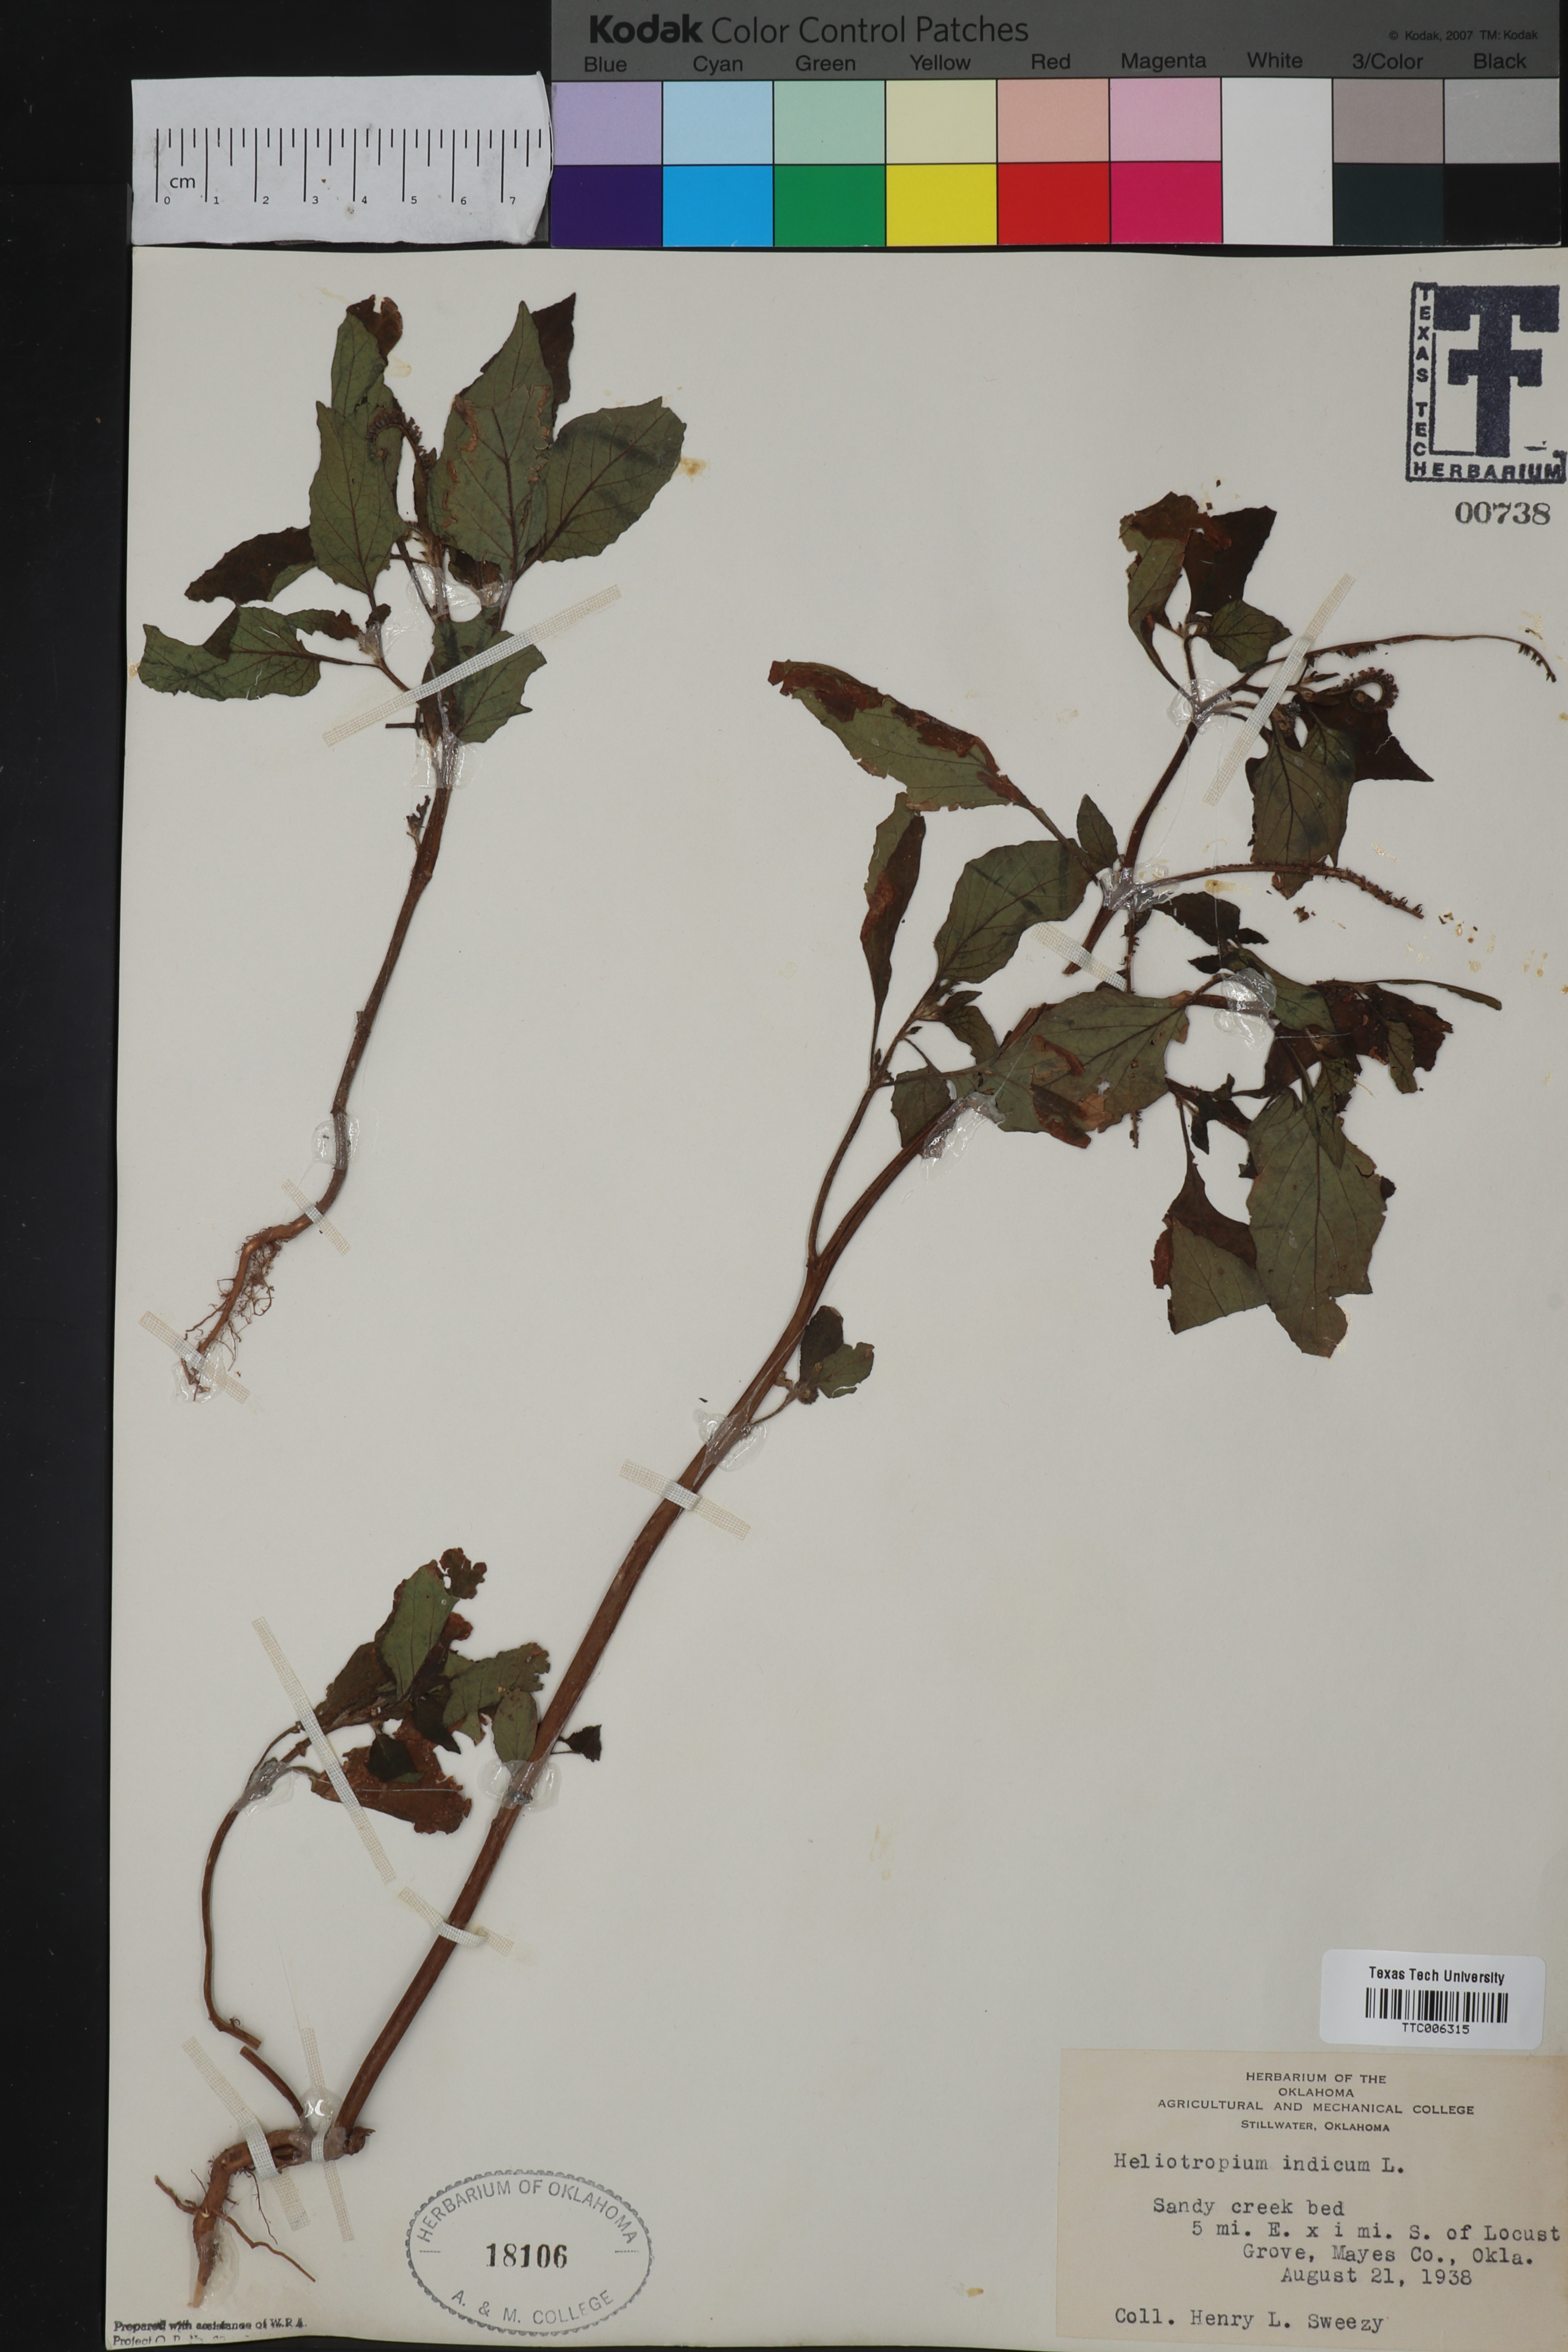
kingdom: Plantae
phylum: Tracheophyta
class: Magnoliopsida
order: Boraginales
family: Heliotropiaceae
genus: Heliotropium
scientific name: Heliotropium indicum
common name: Indian heliotrope
